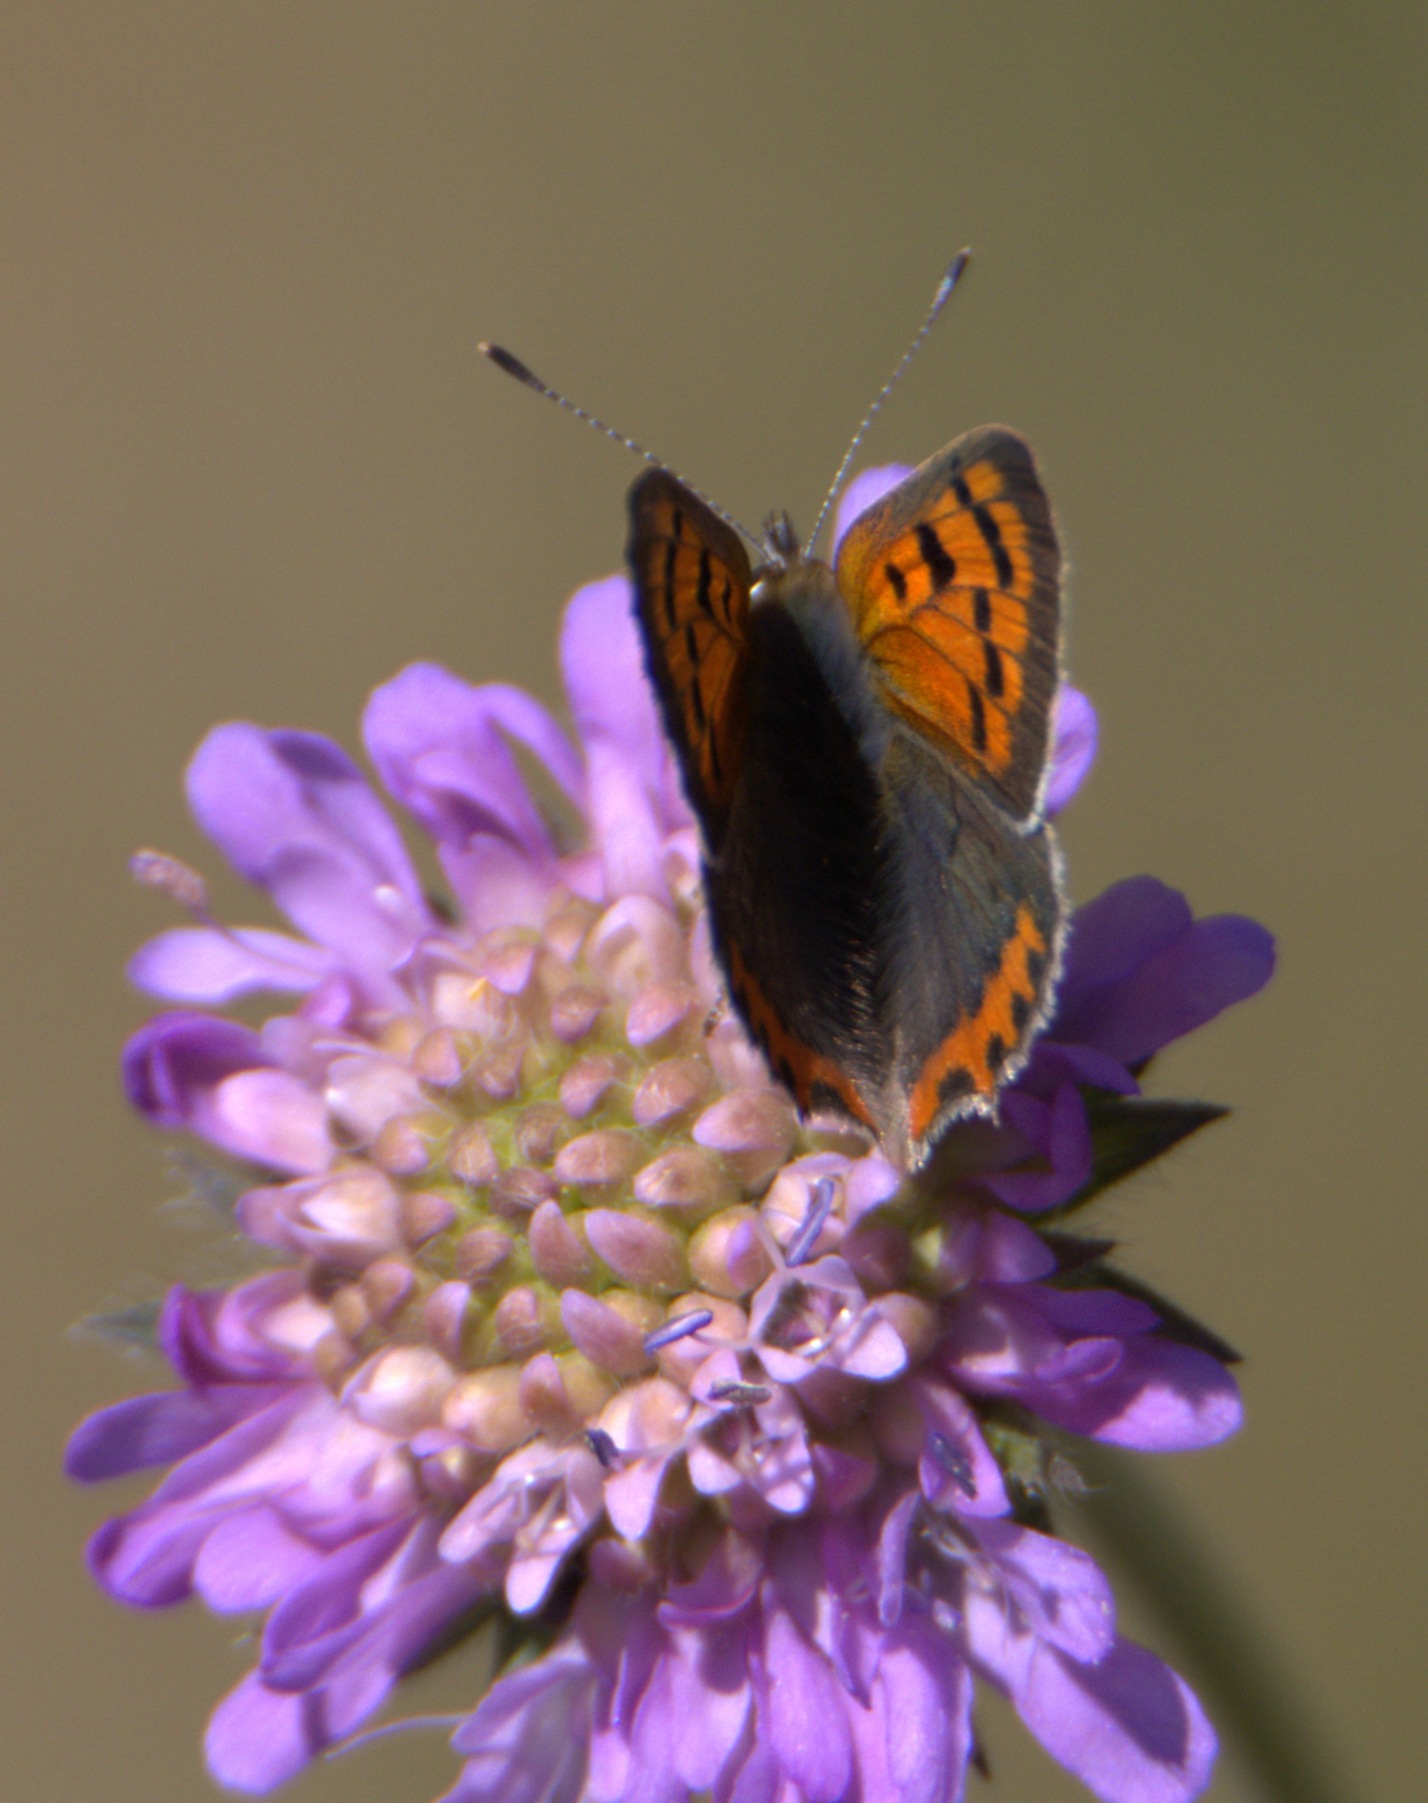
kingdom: Animalia
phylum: Arthropoda
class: Insecta
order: Lepidoptera
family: Lycaenidae
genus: Lycaena
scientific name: Lycaena phlaeas
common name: Lille ildfugl
